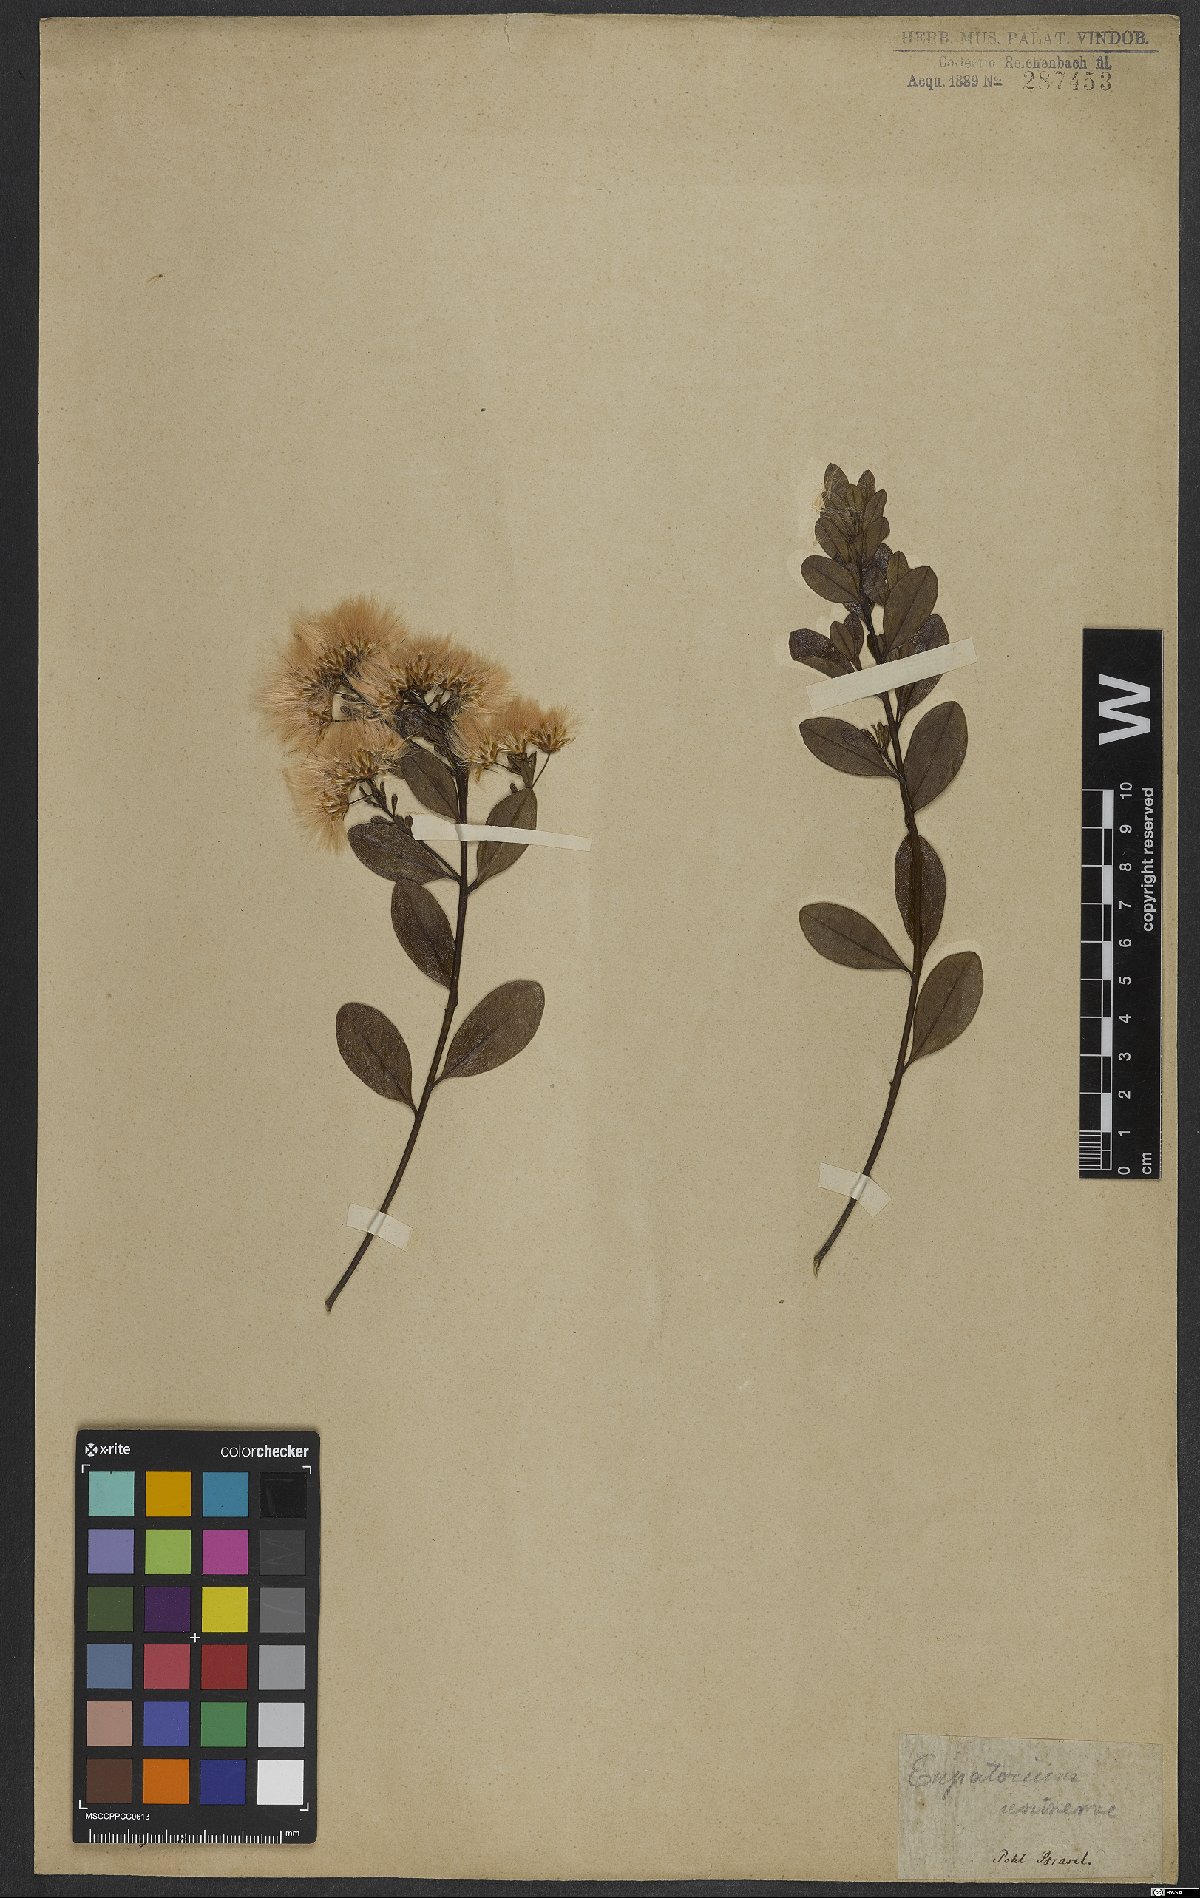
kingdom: Plantae
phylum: Tracheophyta
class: Magnoliopsida
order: Asterales
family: Asteraceae
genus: Eupatorium
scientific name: Eupatorium
